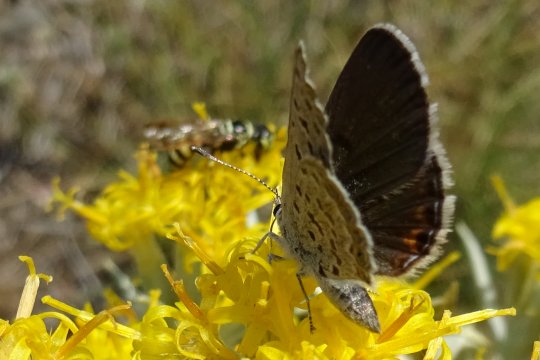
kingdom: Animalia
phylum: Arthropoda
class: Insecta
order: Lepidoptera
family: Lycaenidae
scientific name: Lycaenidae
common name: Blues
